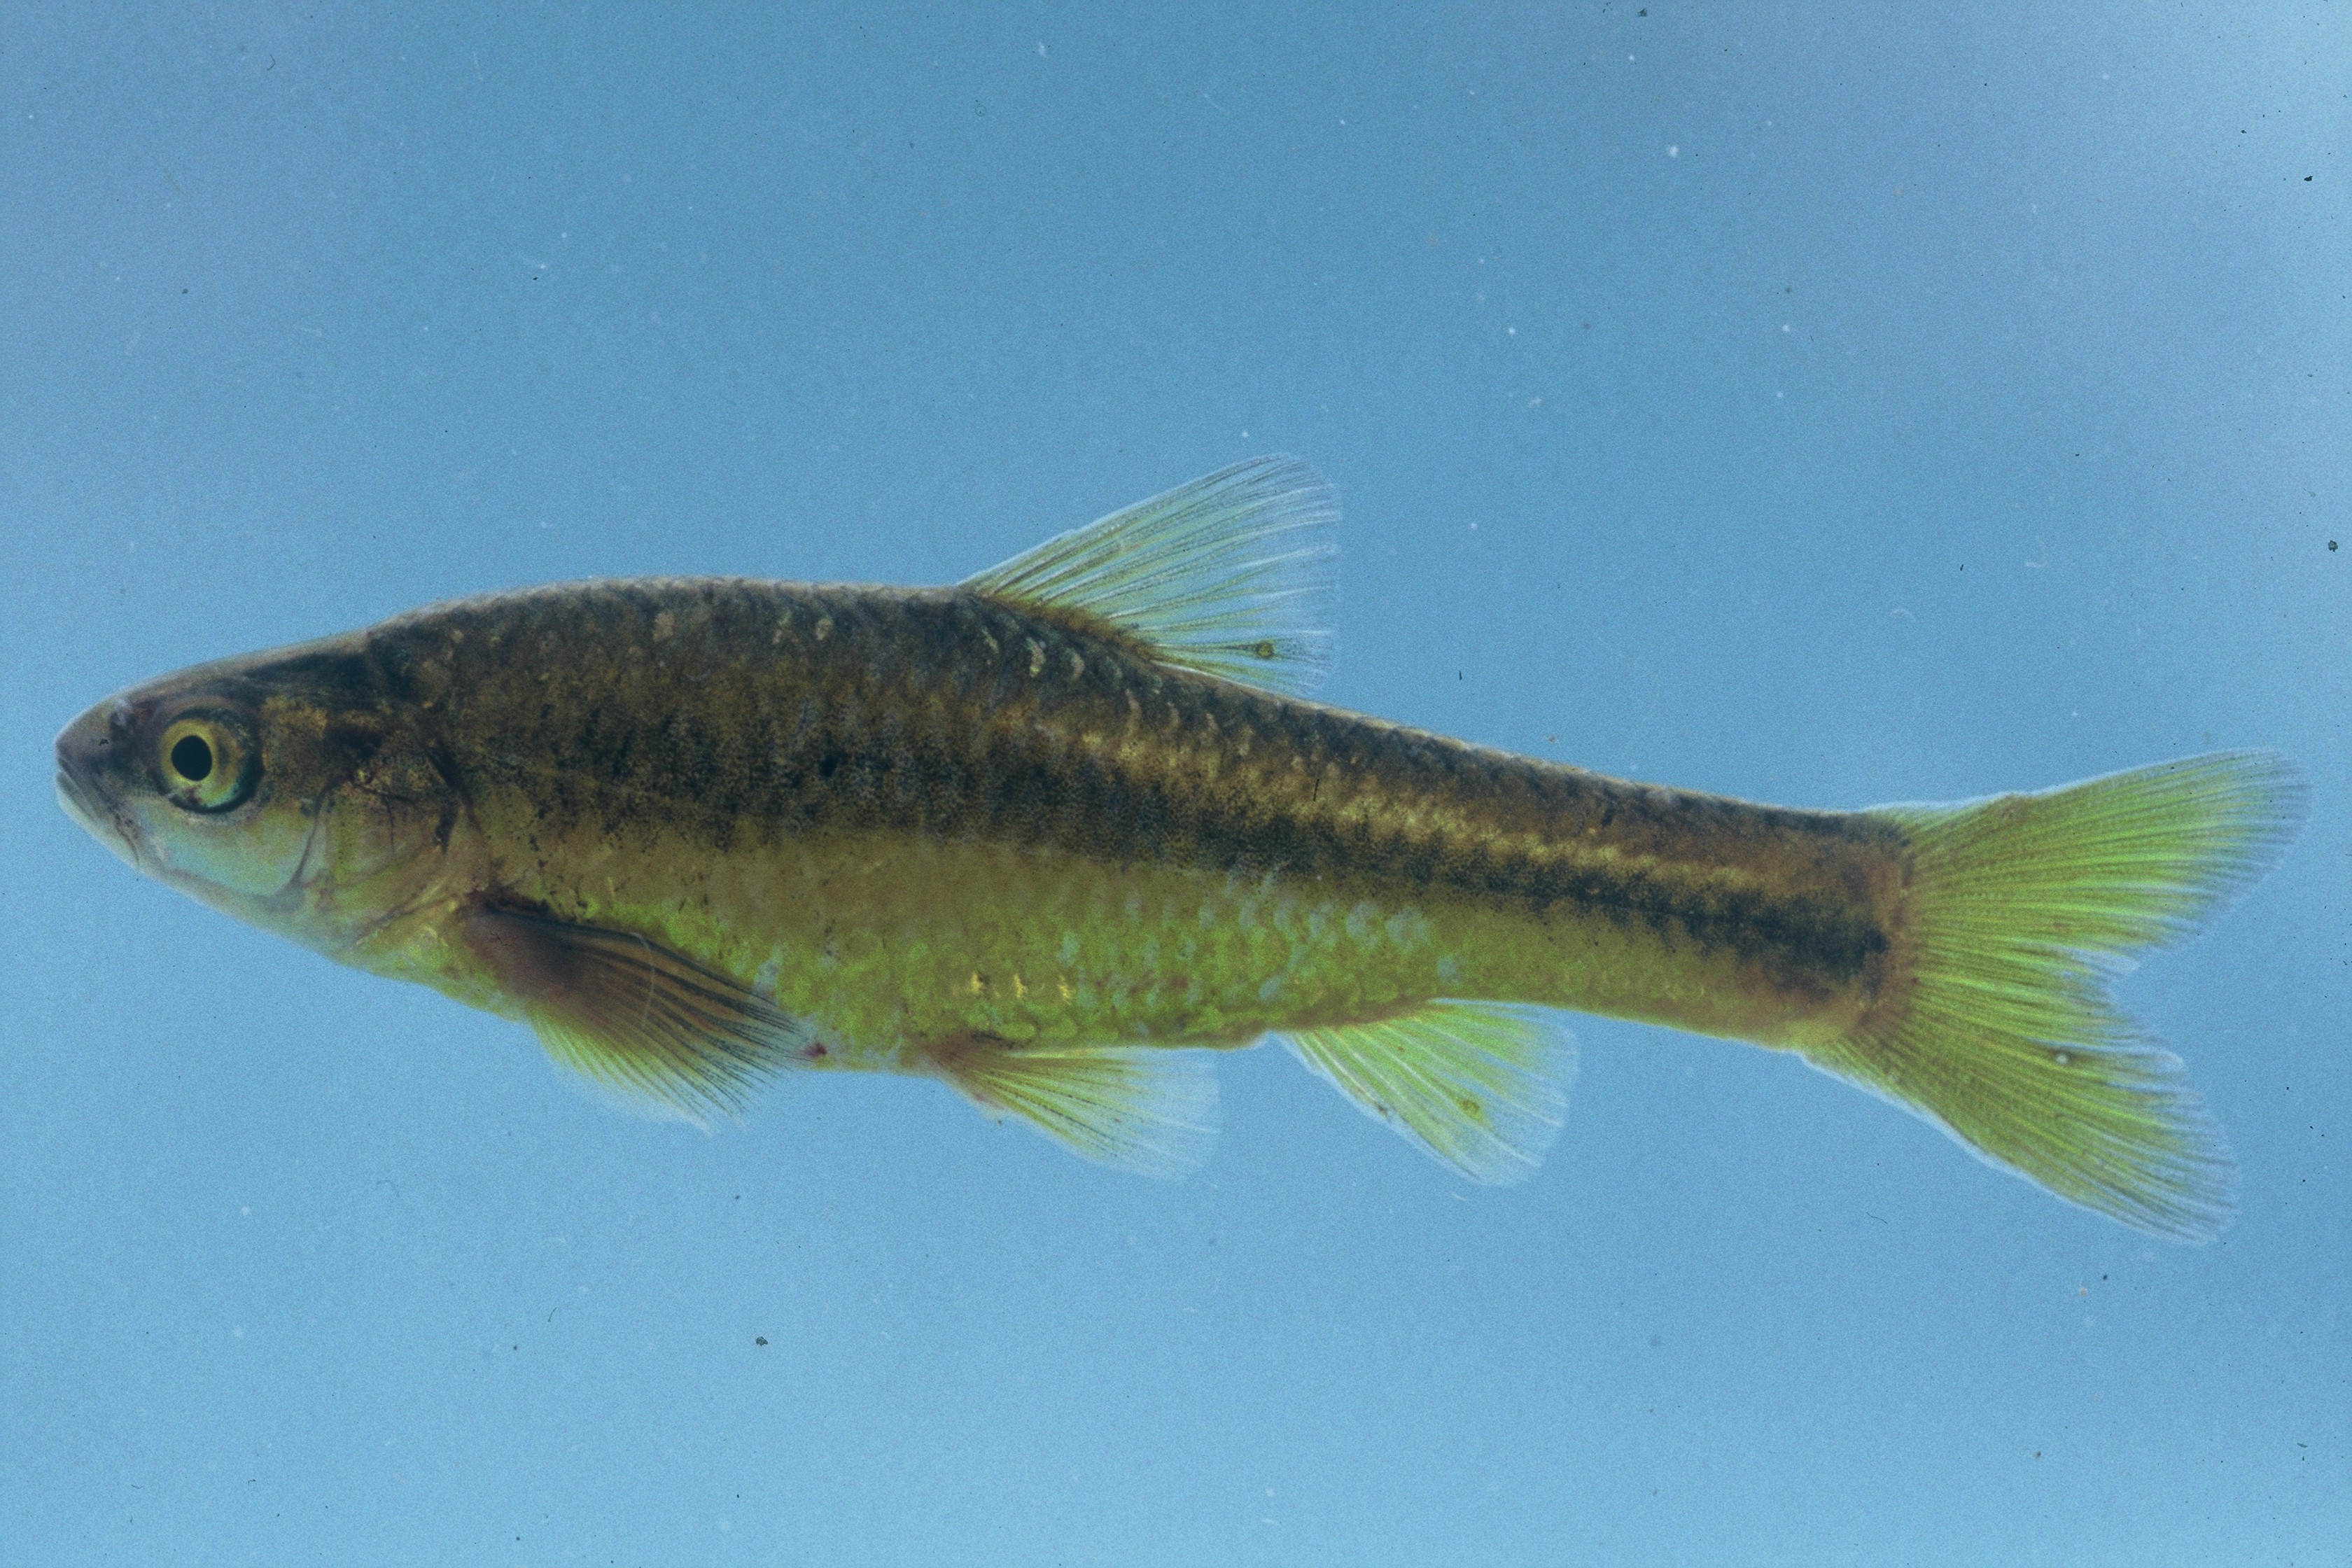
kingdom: Animalia
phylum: Chordata
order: Cypriniformes
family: Cyprinidae
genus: Enteromius
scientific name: Enteromius anoplus
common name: Chubbyhead barb
